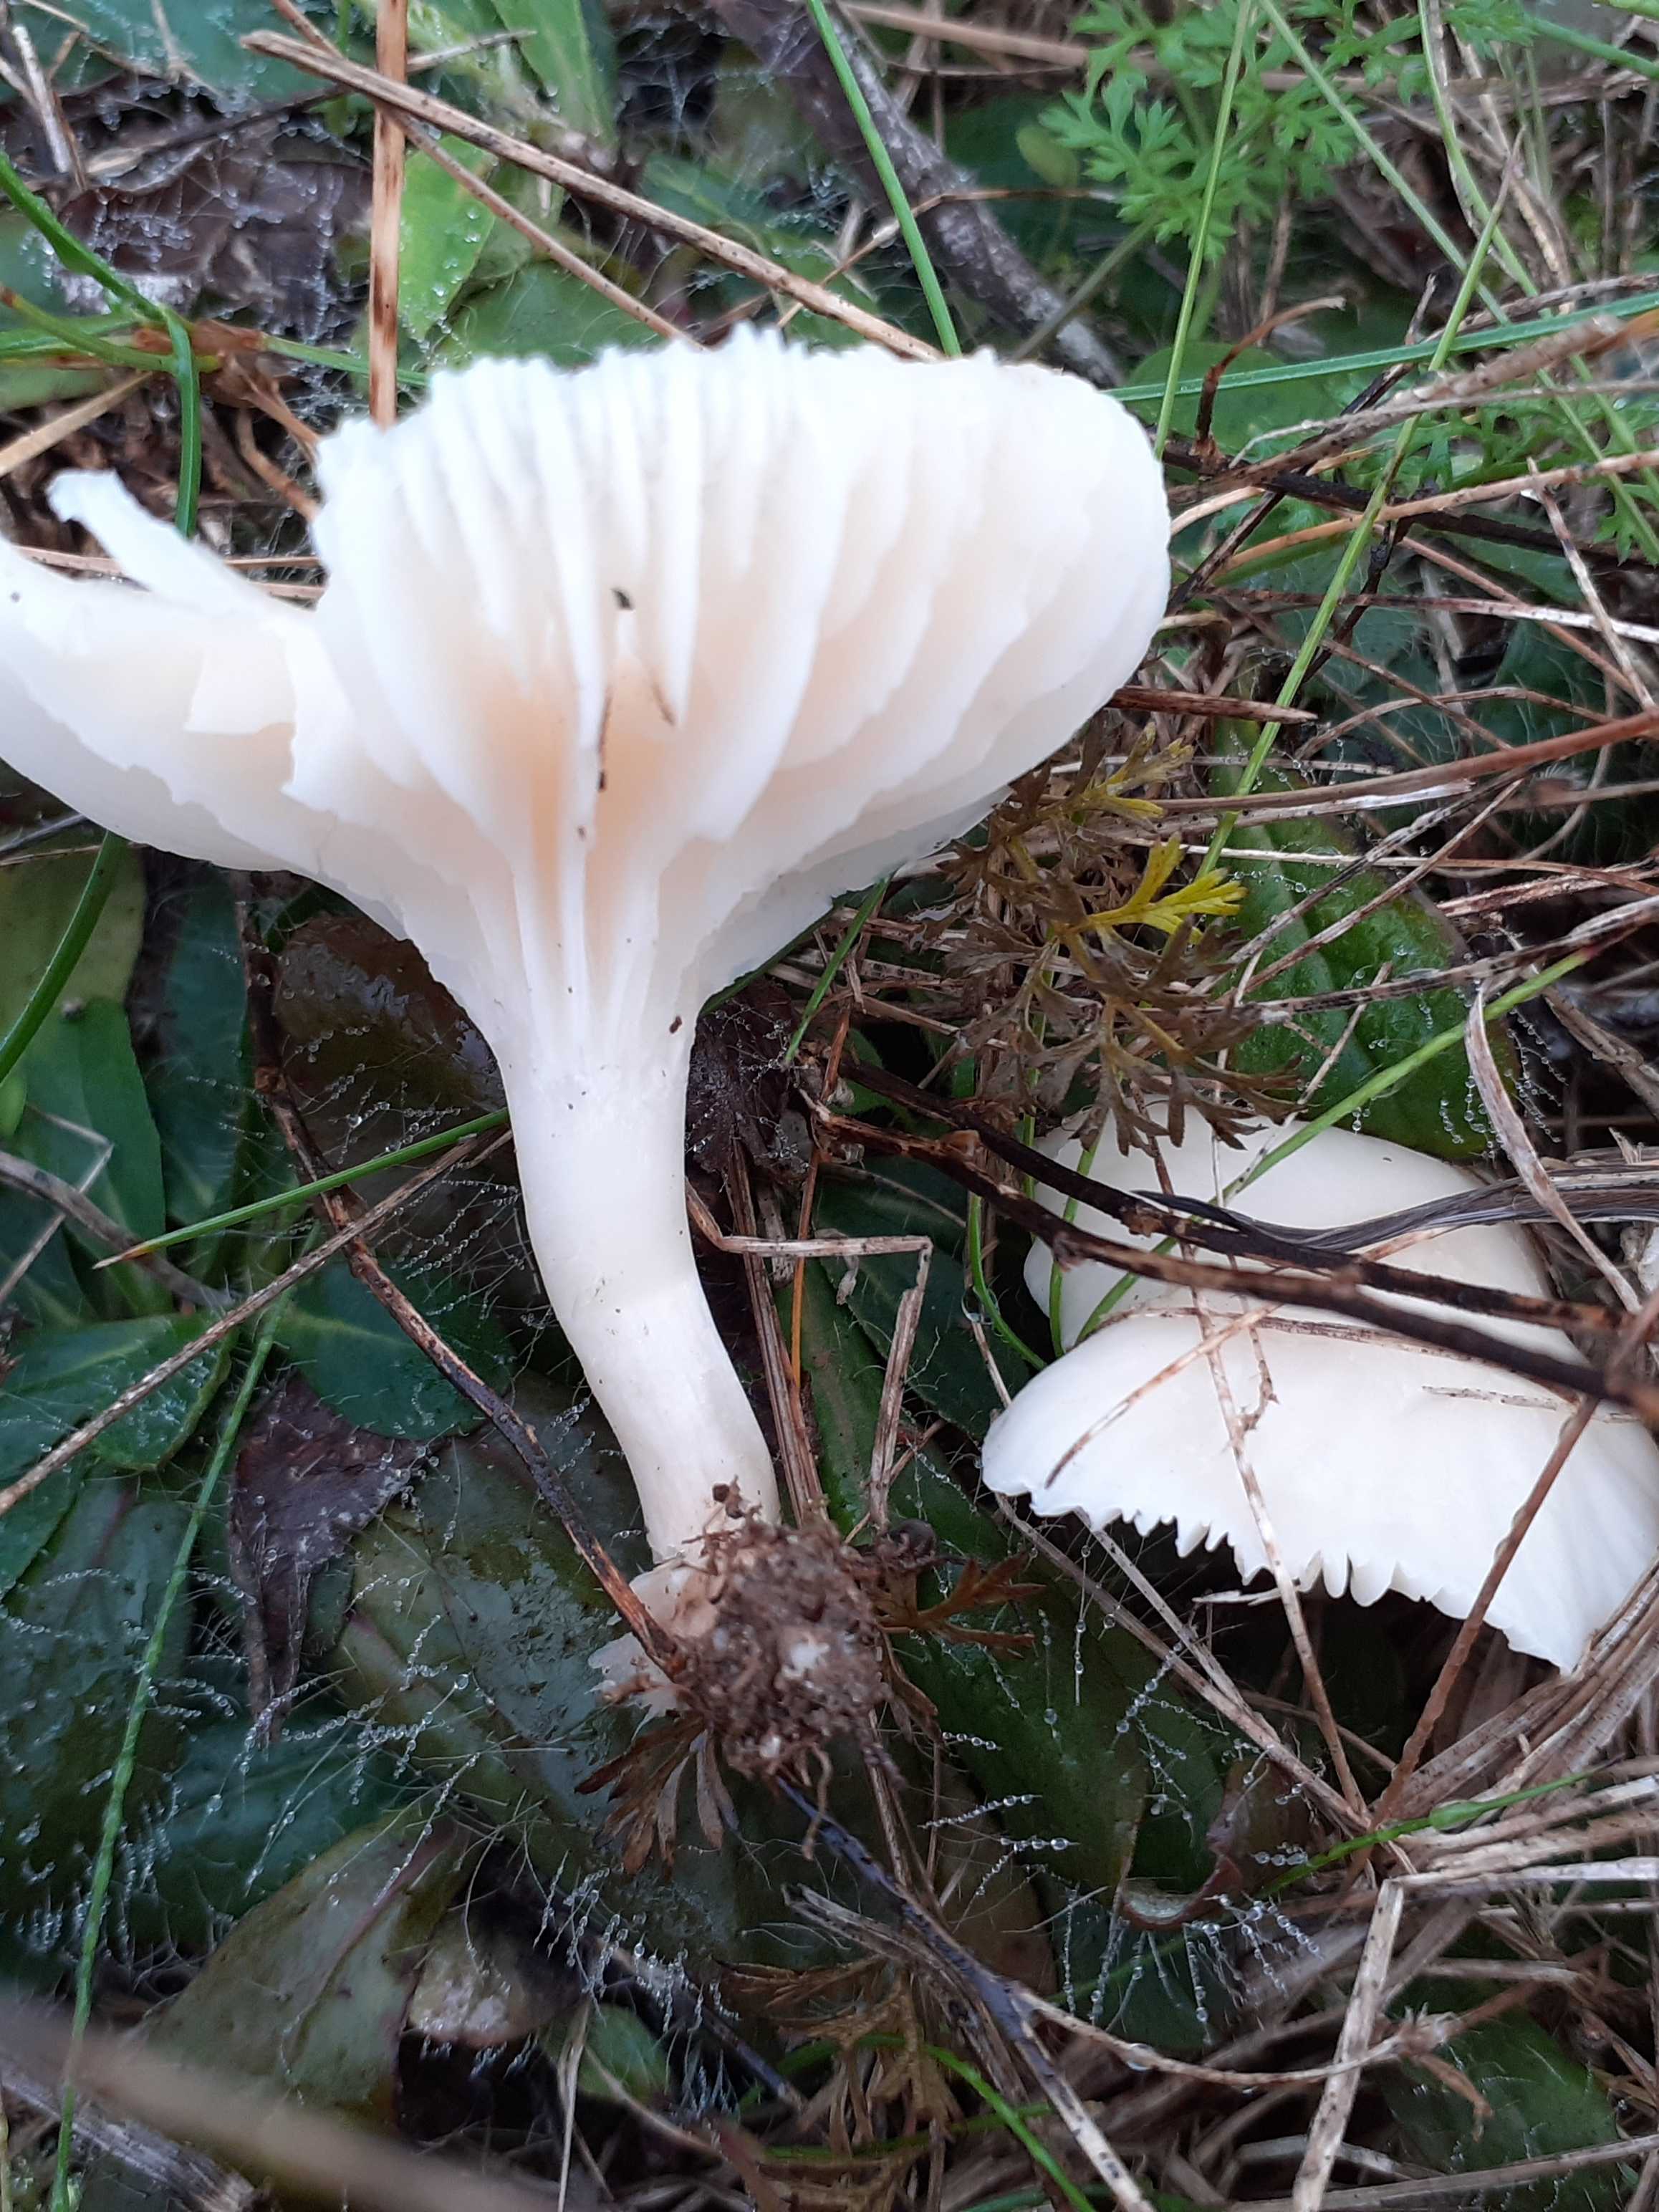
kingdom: Fungi
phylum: Basidiomycota
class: Agaricomycetes
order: Agaricales
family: Hygrophoraceae
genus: Cuphophyllus
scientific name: Cuphophyllus virgineus
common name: snehvid vokshat
